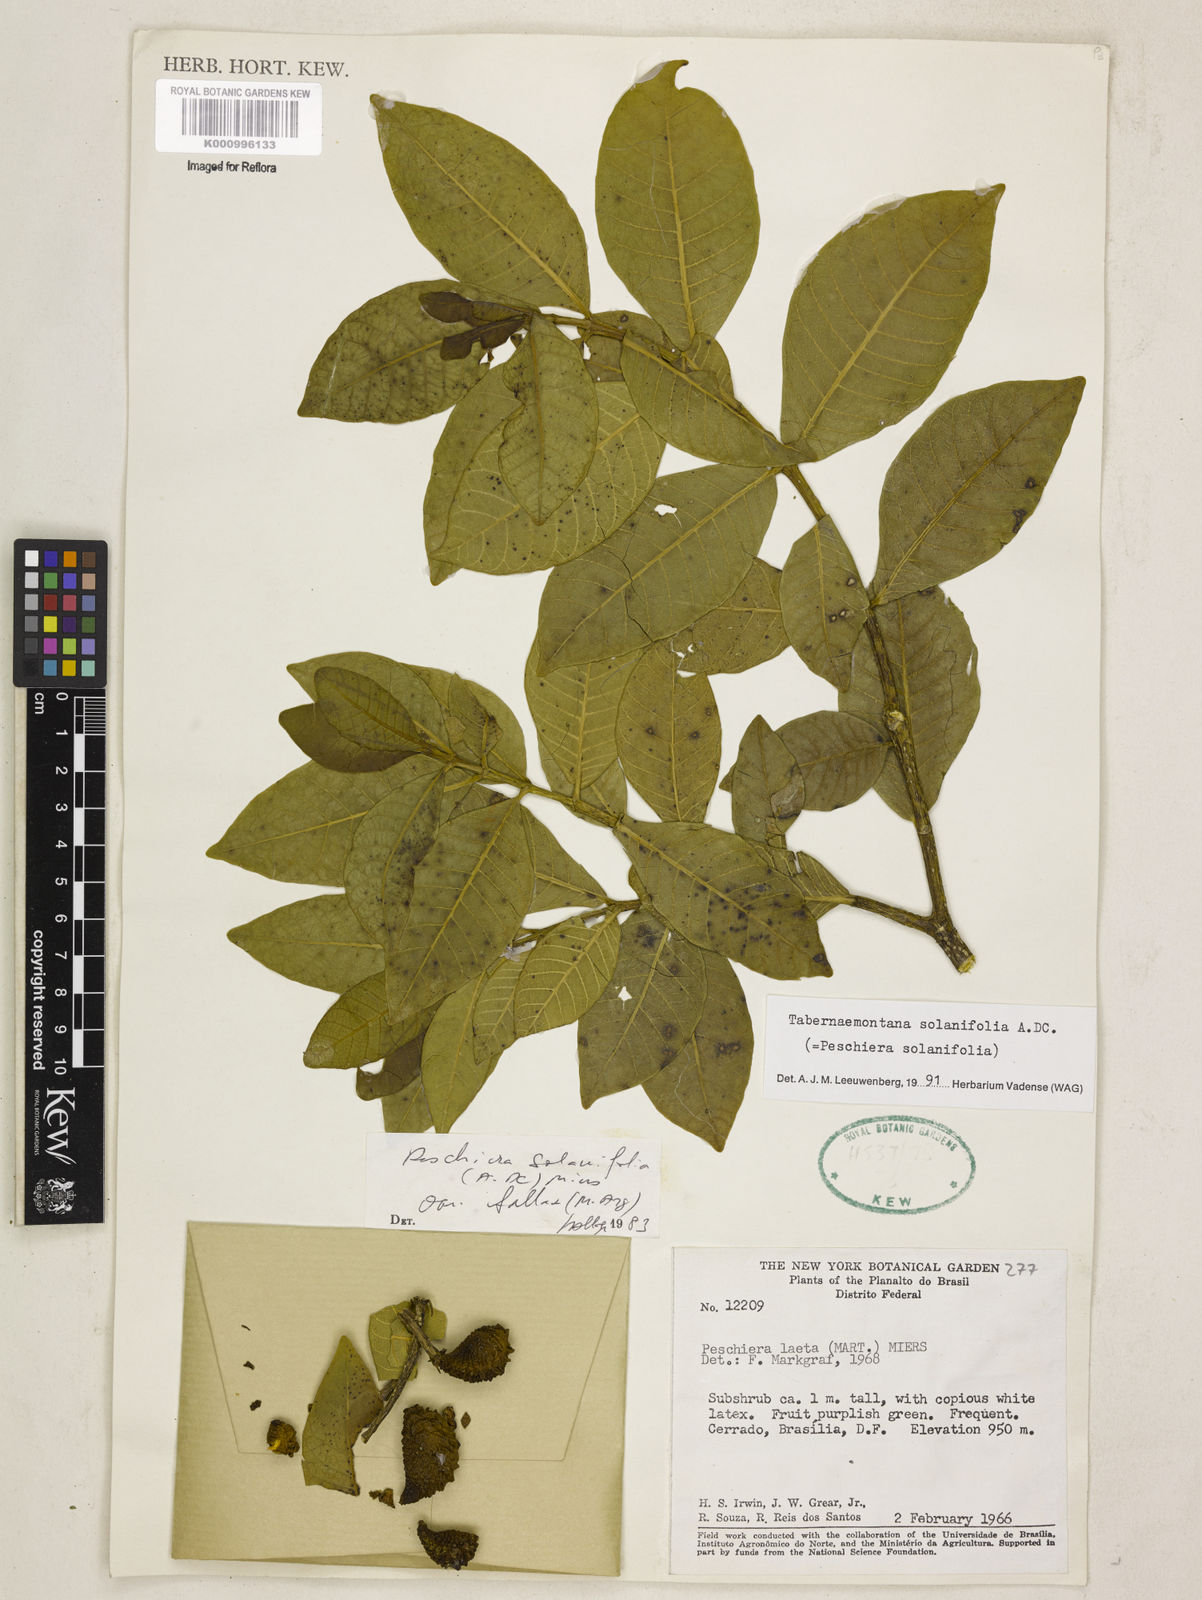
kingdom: Plantae
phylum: Tracheophyta
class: Magnoliopsida
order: Gentianales
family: Apocynaceae
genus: Tabernaemontana
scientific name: Tabernaemontana solanifolia
